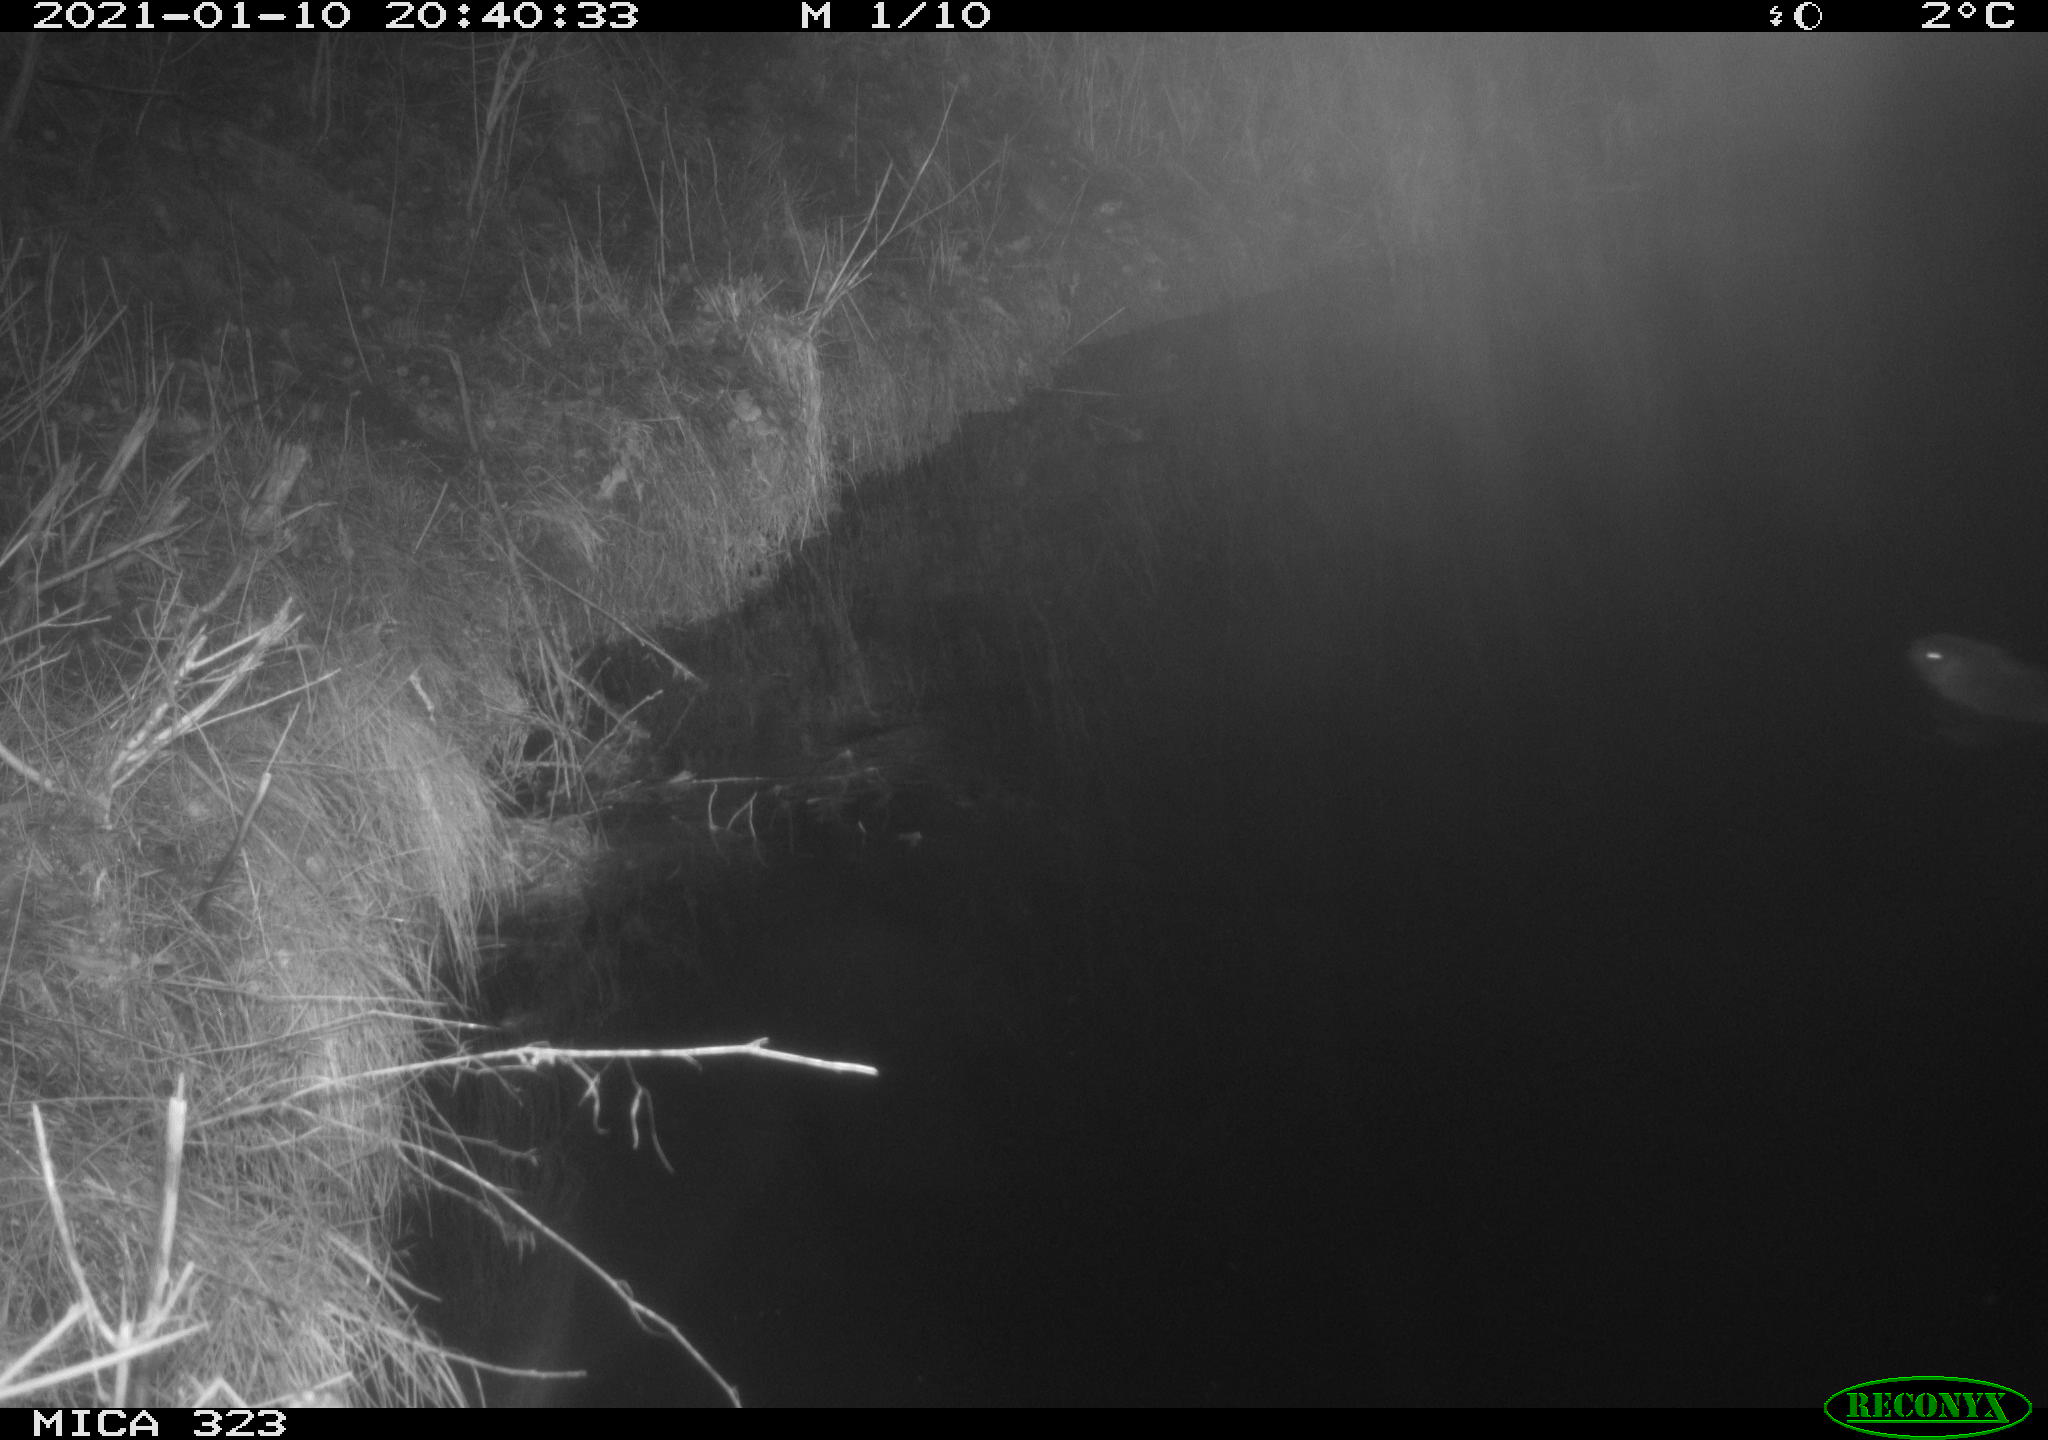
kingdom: Animalia
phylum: Chordata
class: Mammalia
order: Rodentia
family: Myocastoridae
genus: Myocastor
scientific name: Myocastor coypus
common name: Coypu
